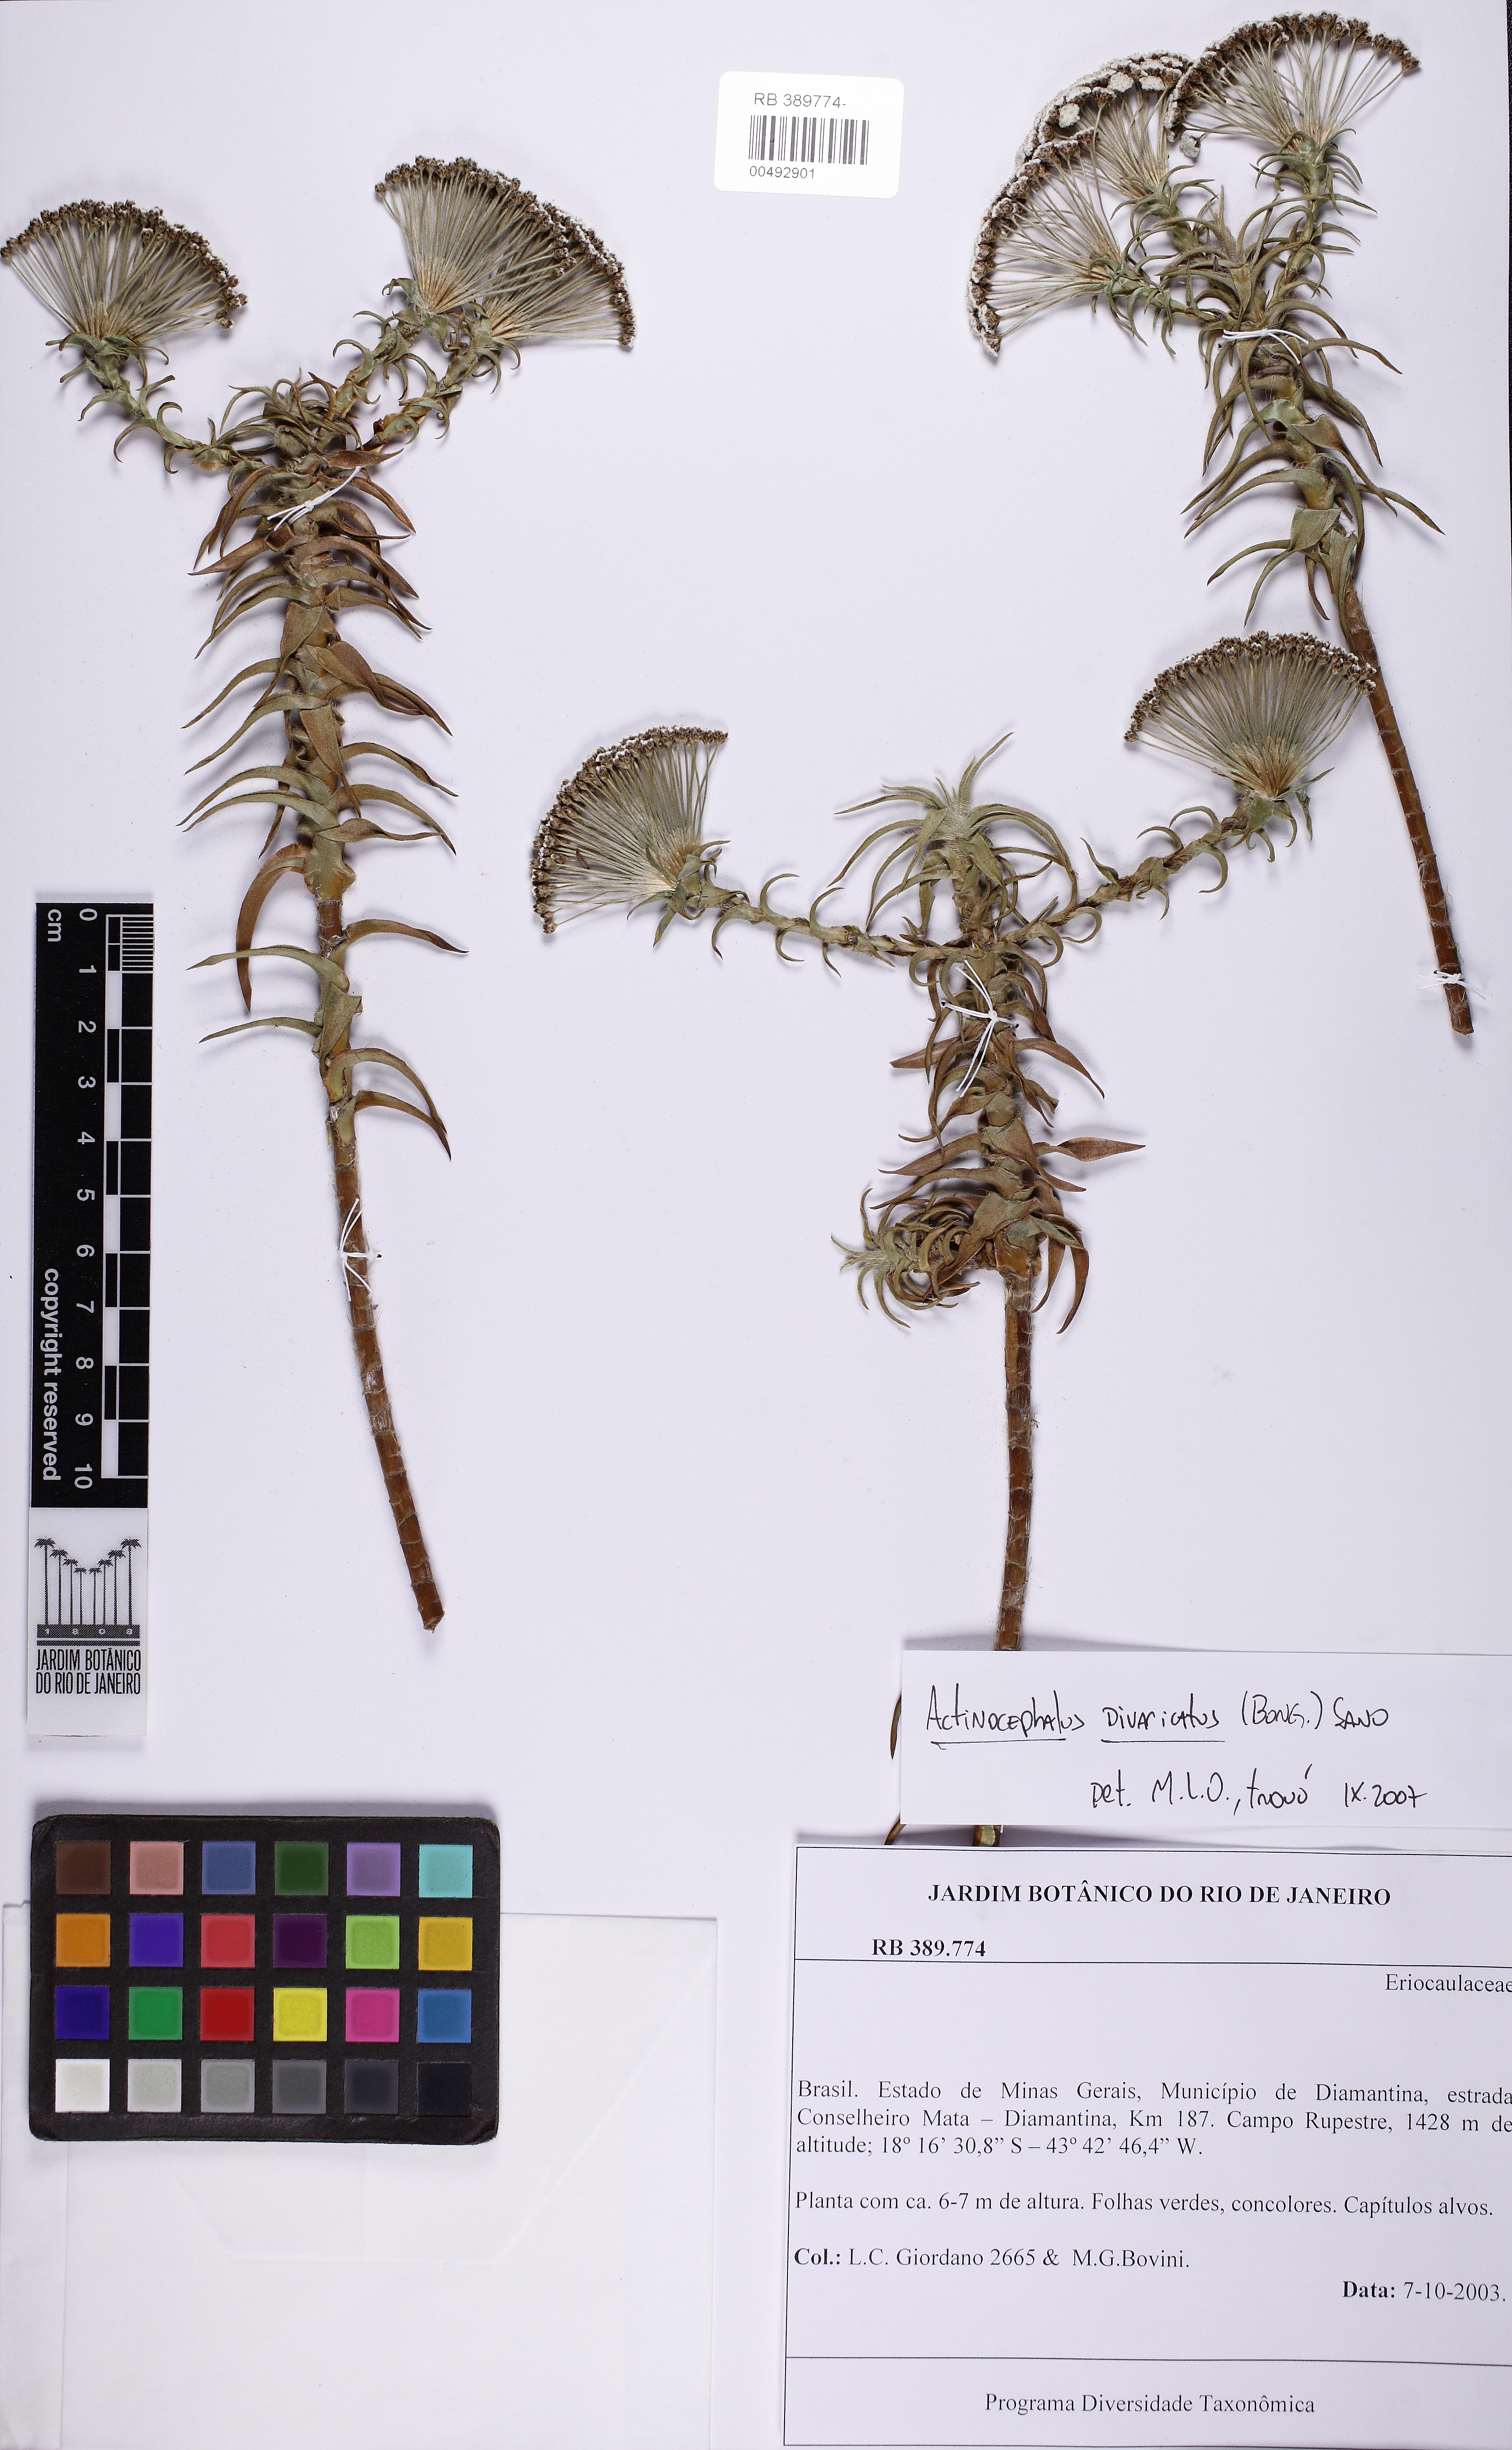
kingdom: Plantae
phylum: Tracheophyta
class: Liliopsida
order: Poales
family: Eriocaulaceae
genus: Paepalanthus
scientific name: Paepalanthus divaricatus
